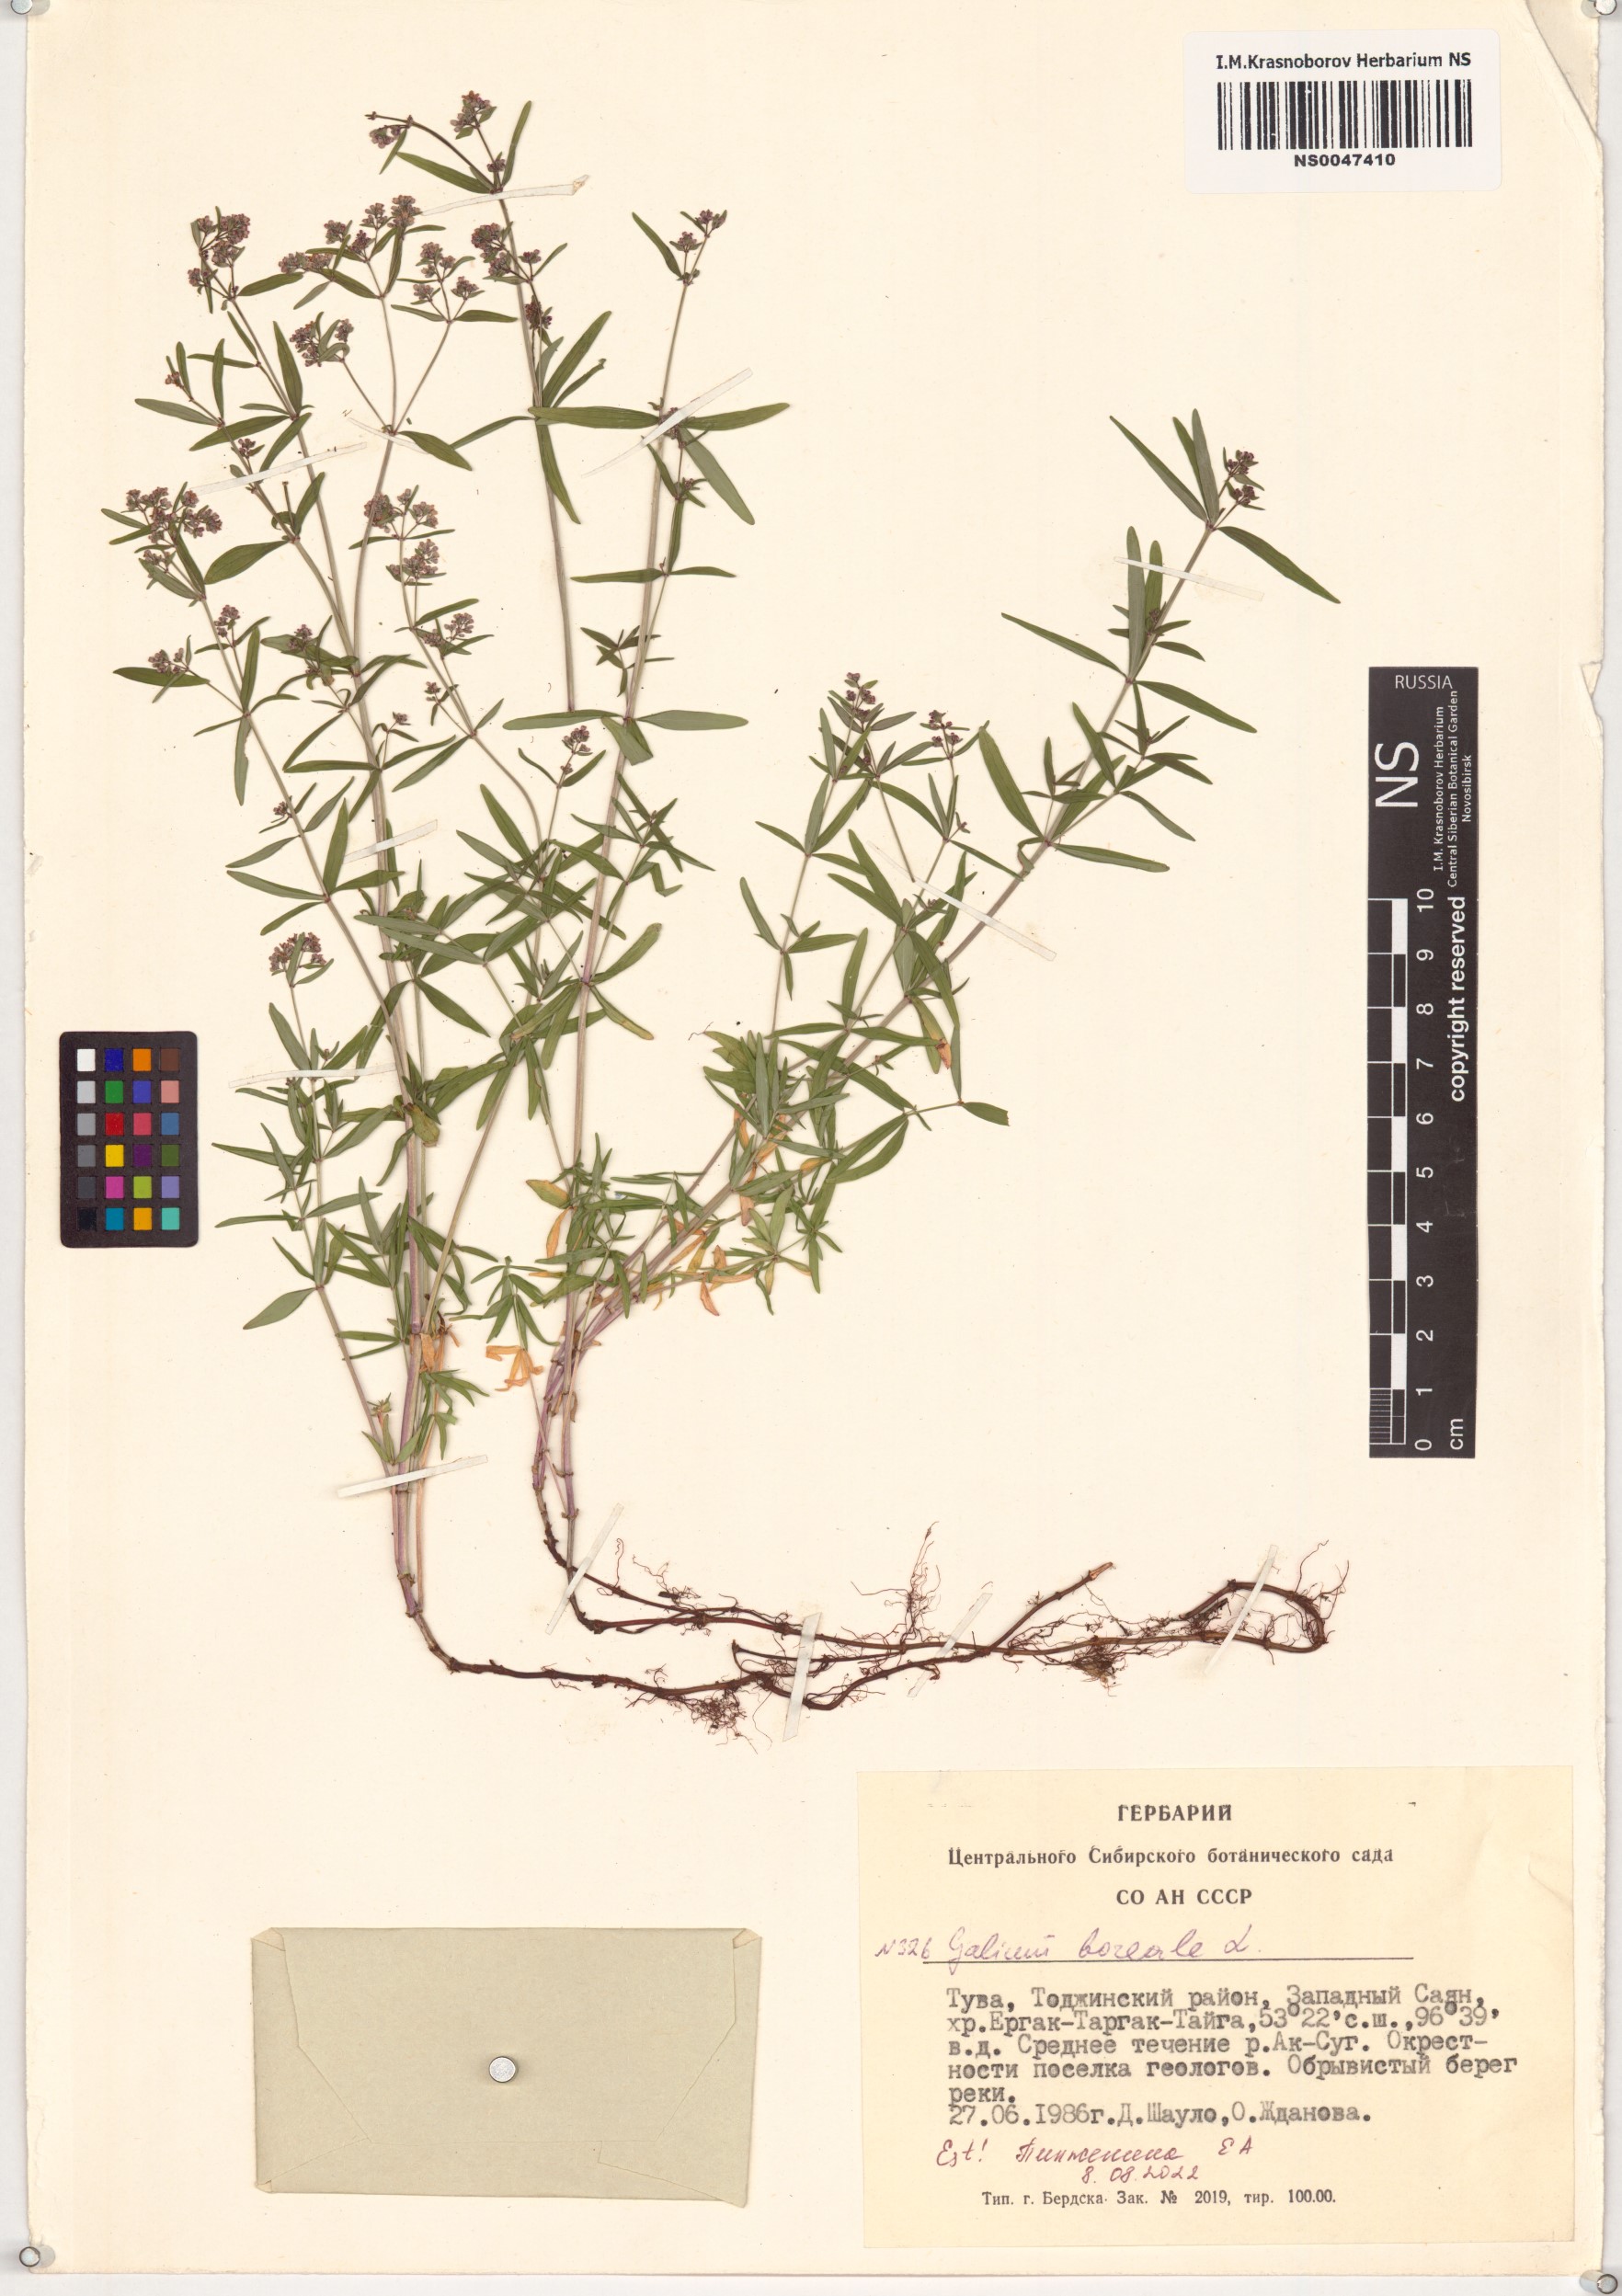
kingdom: Plantae
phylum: Tracheophyta
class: Magnoliopsida
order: Gentianales
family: Rubiaceae
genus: Galium
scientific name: Galium boreale
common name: Northern bedstraw
